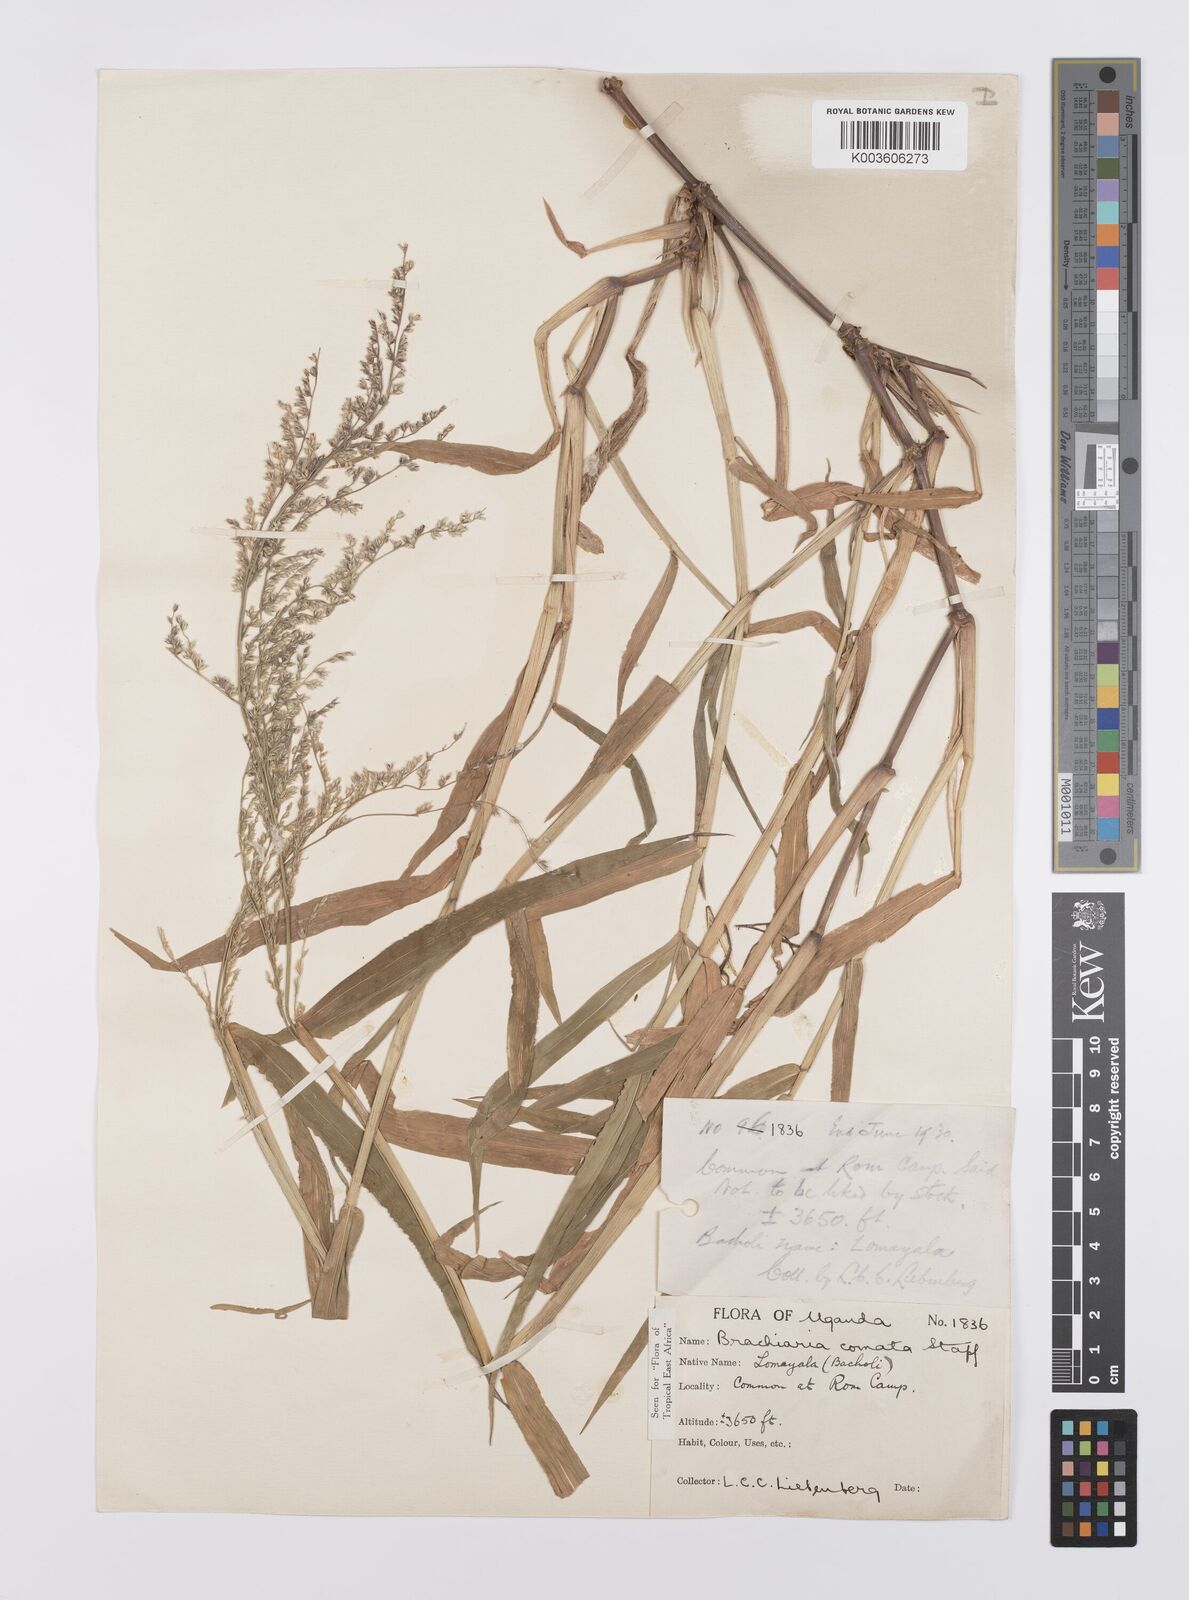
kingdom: Plantae
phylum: Tracheophyta
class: Liliopsida
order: Poales
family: Poaceae
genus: Urochloa
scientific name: Urochloa comata
